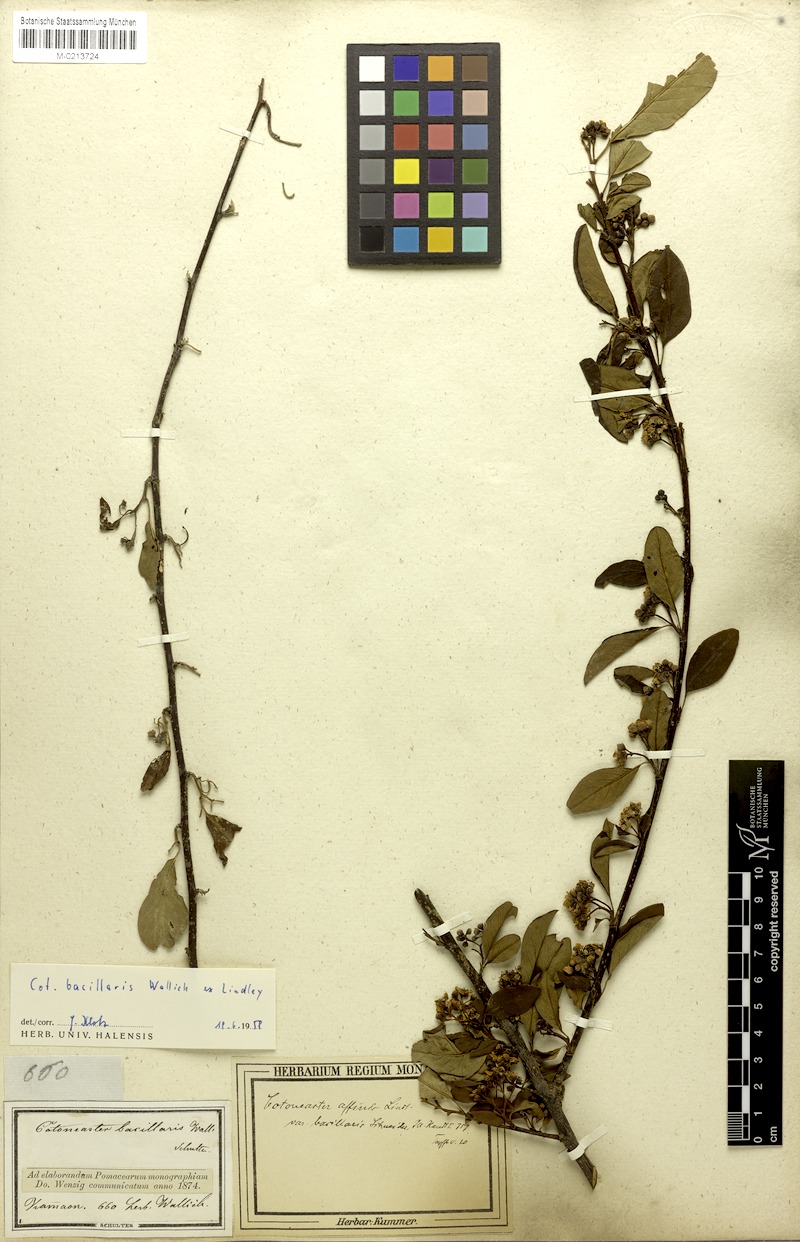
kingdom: Plantae
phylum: Tracheophyta
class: Magnoliopsida
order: Rosales
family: Rosaceae
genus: Cotoneaster
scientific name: Cotoneaster affinis
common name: Purpleberry cotoneaster
